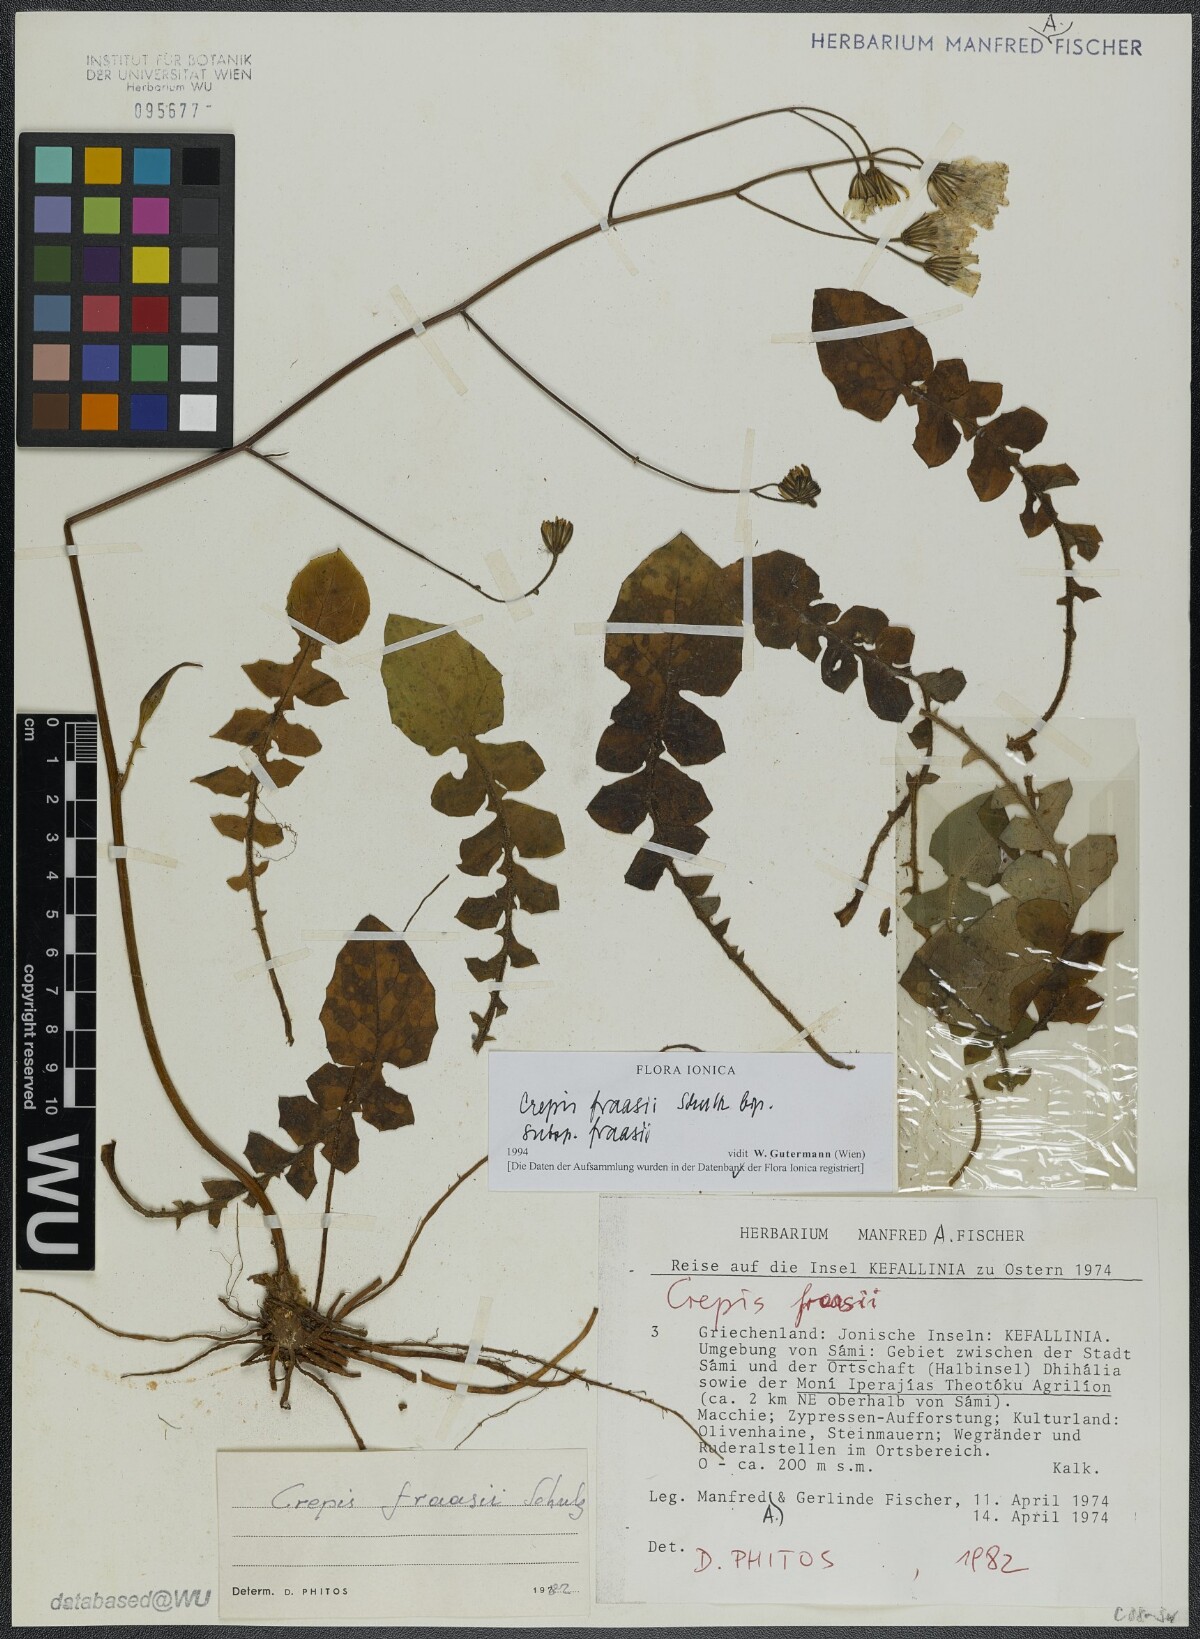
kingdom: Plantae
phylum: Tracheophyta
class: Magnoliopsida
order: Asterales
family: Asteraceae
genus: Crepis
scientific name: Crepis fraasii
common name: Hawk's-beard
